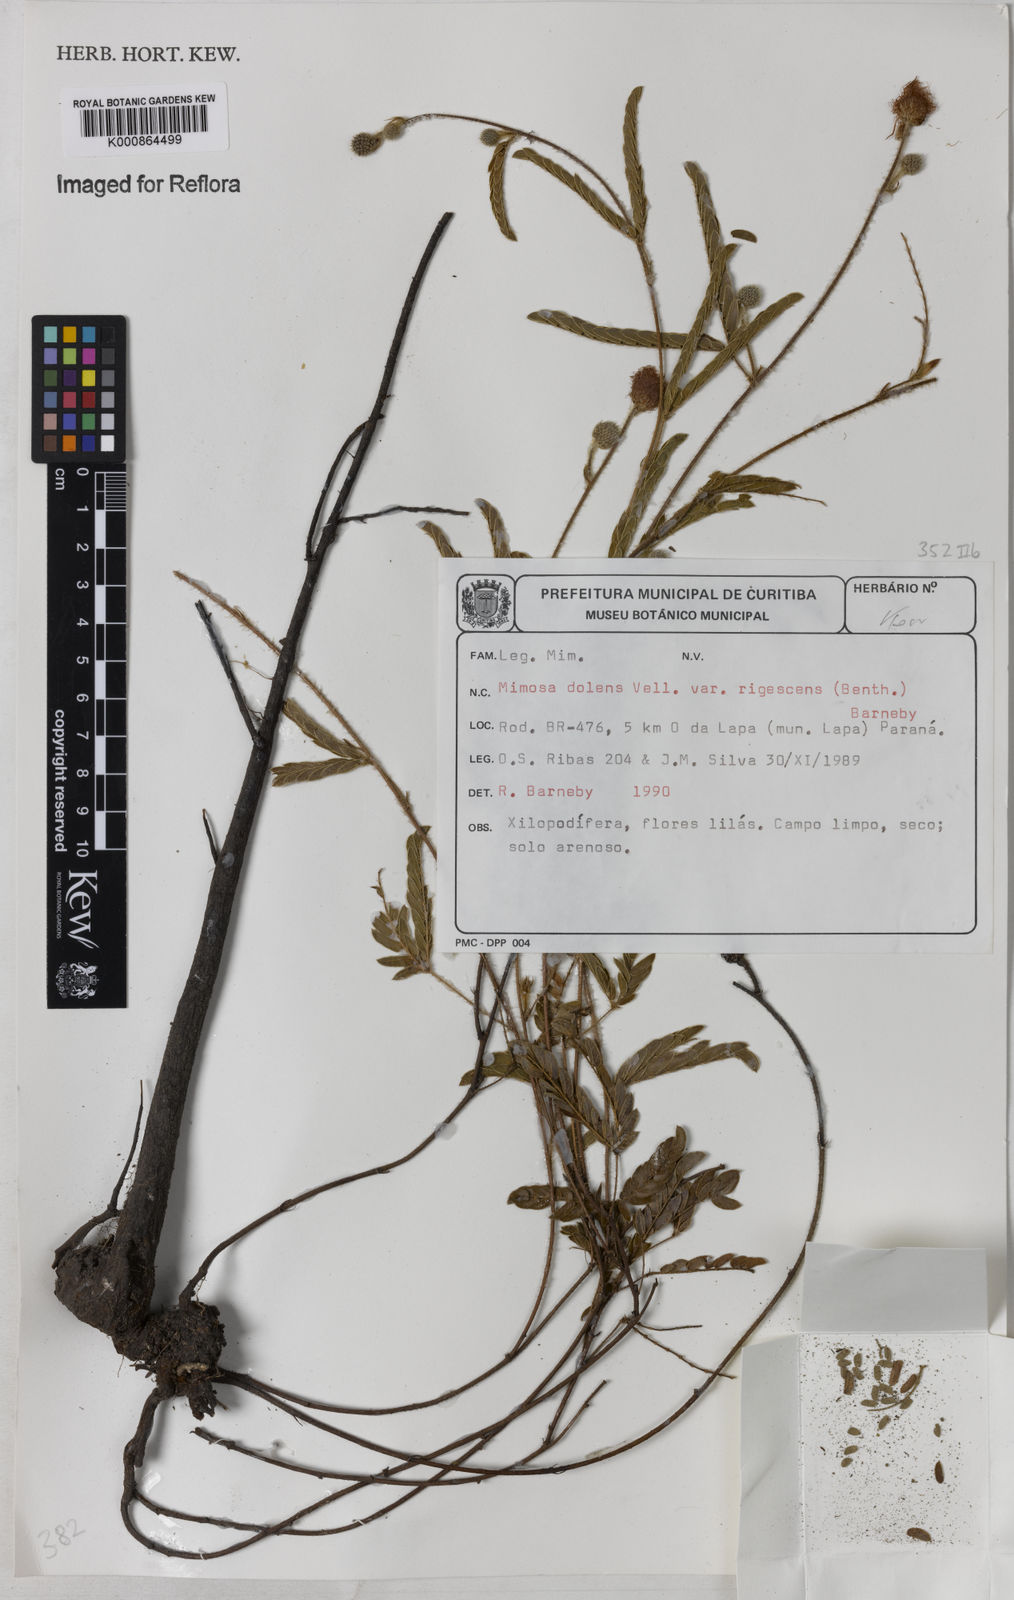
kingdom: Plantae
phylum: Tracheophyta
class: Magnoliopsida
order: Fabales
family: Fabaceae
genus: Mimosa
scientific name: Mimosa dolens
